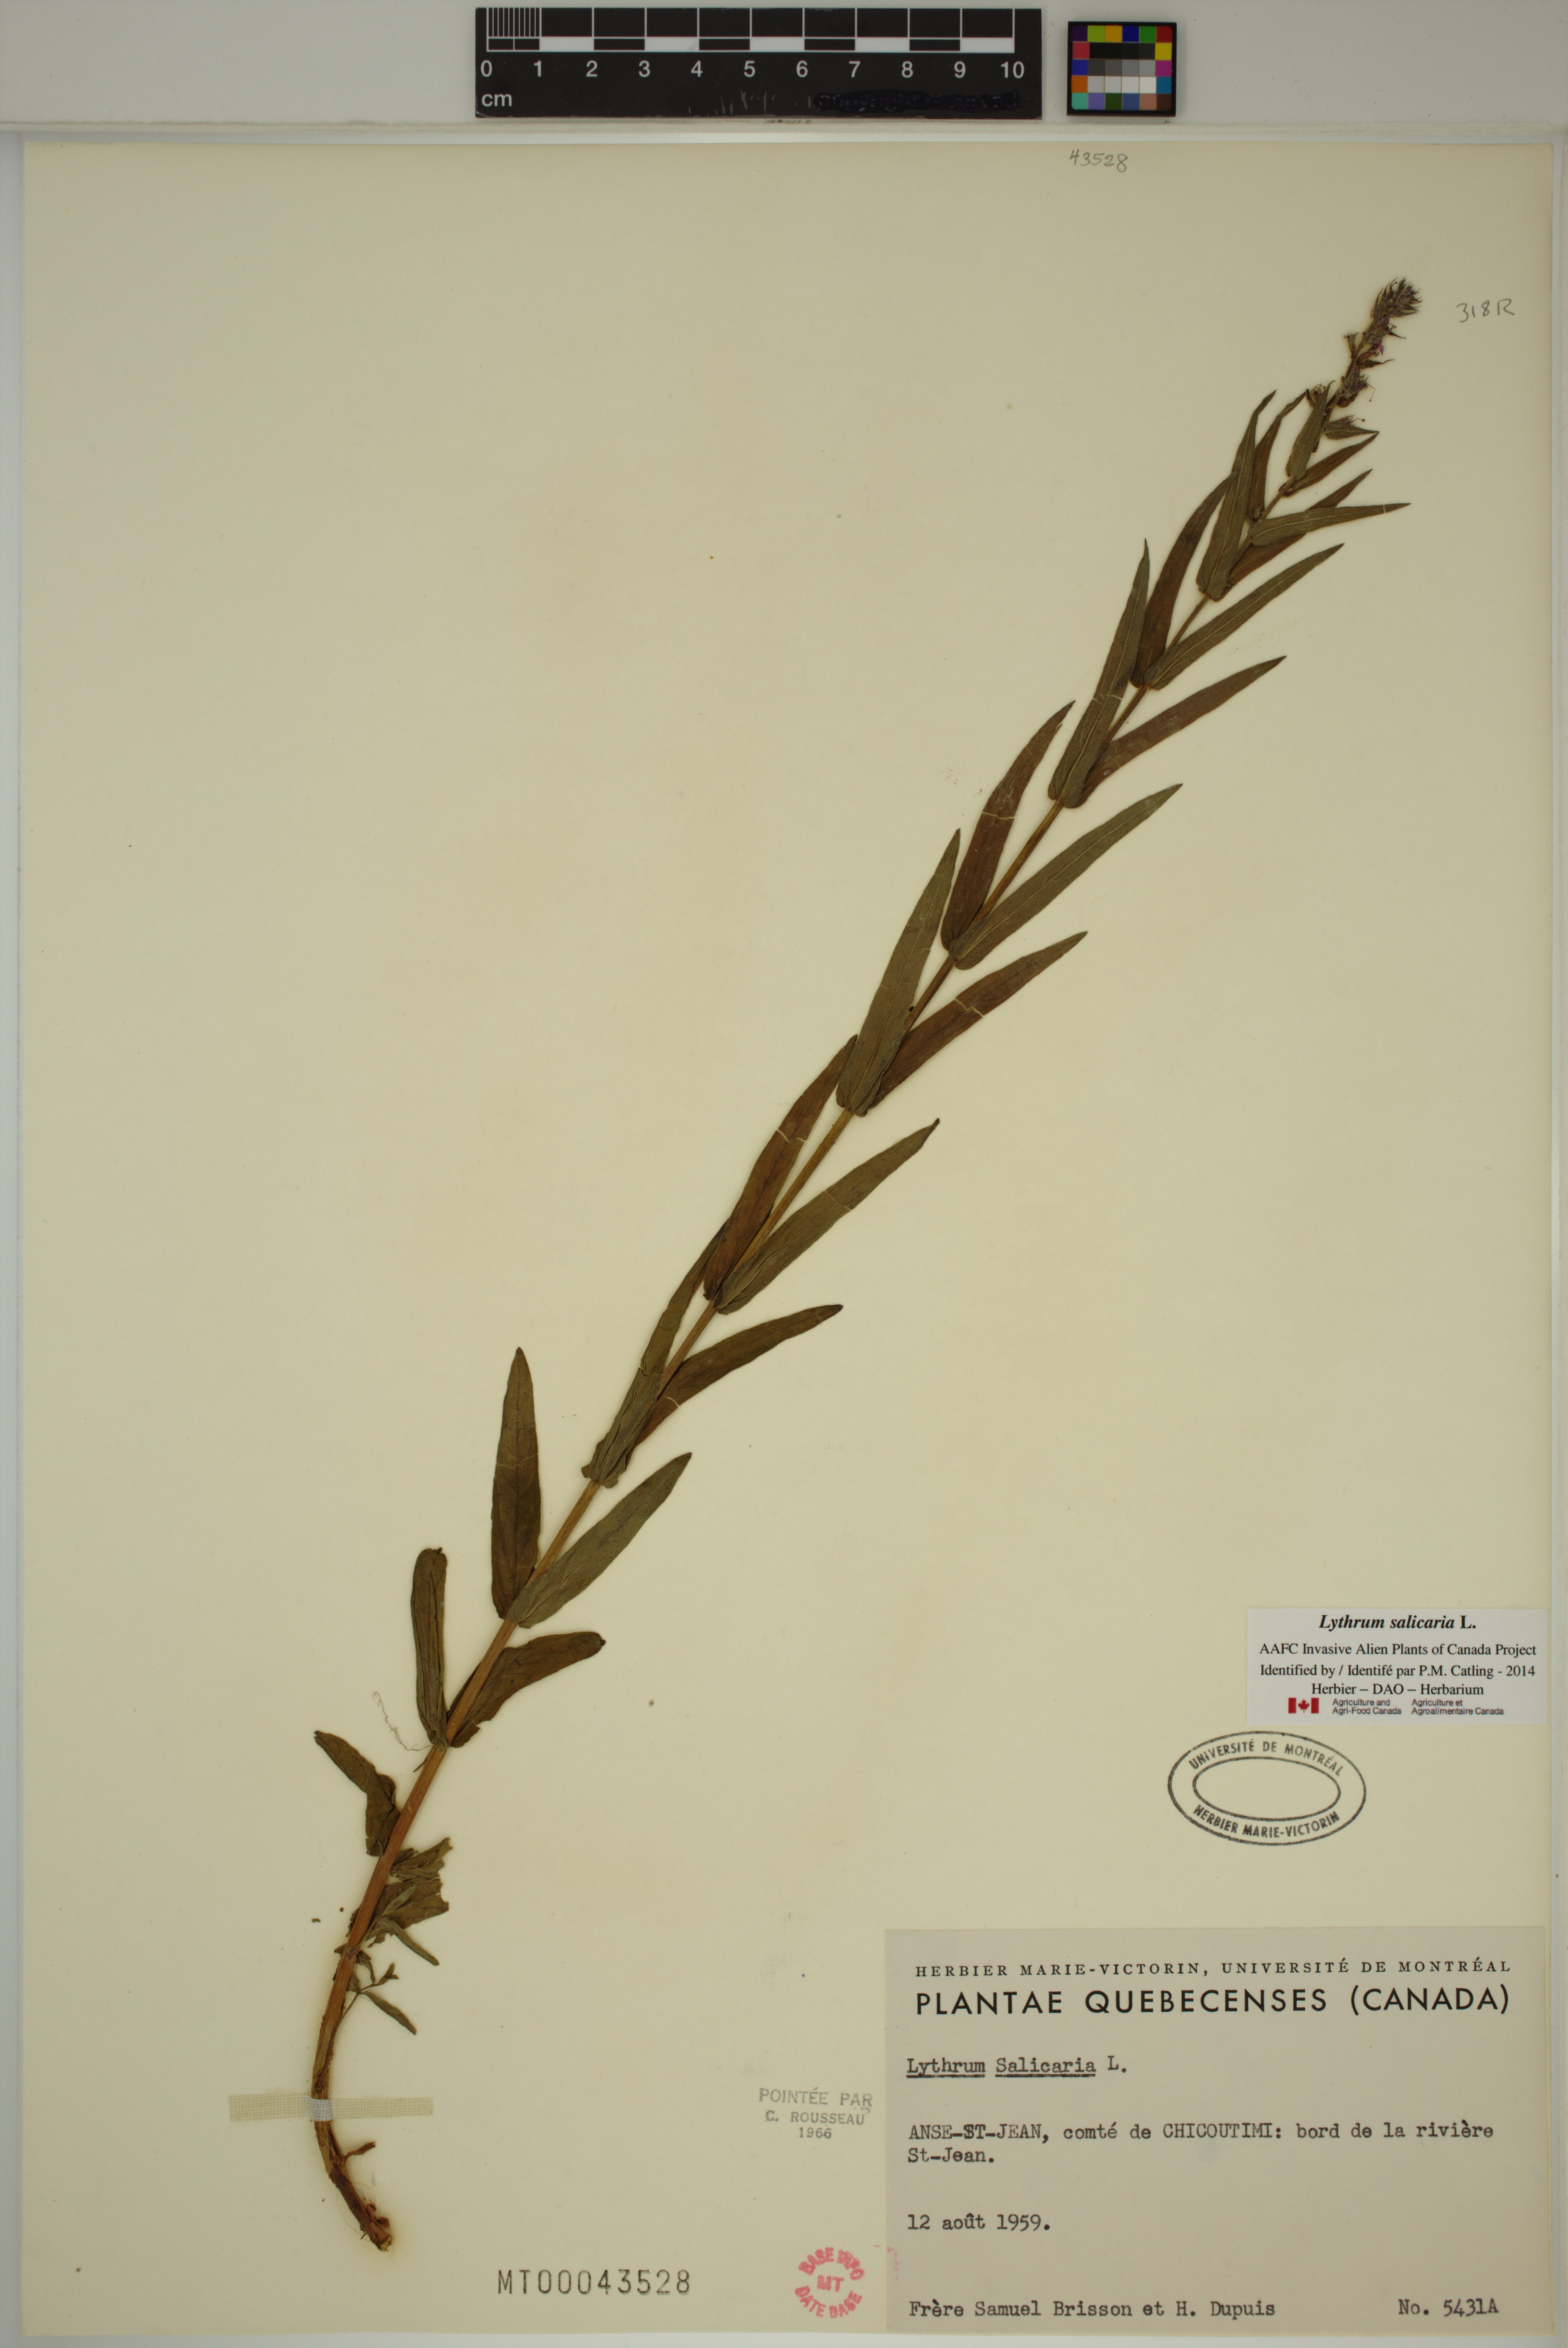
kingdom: Plantae
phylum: Tracheophyta
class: Magnoliopsida
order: Myrtales
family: Lythraceae
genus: Lythrum
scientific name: Lythrum salicaria
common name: Purple loosestrife
